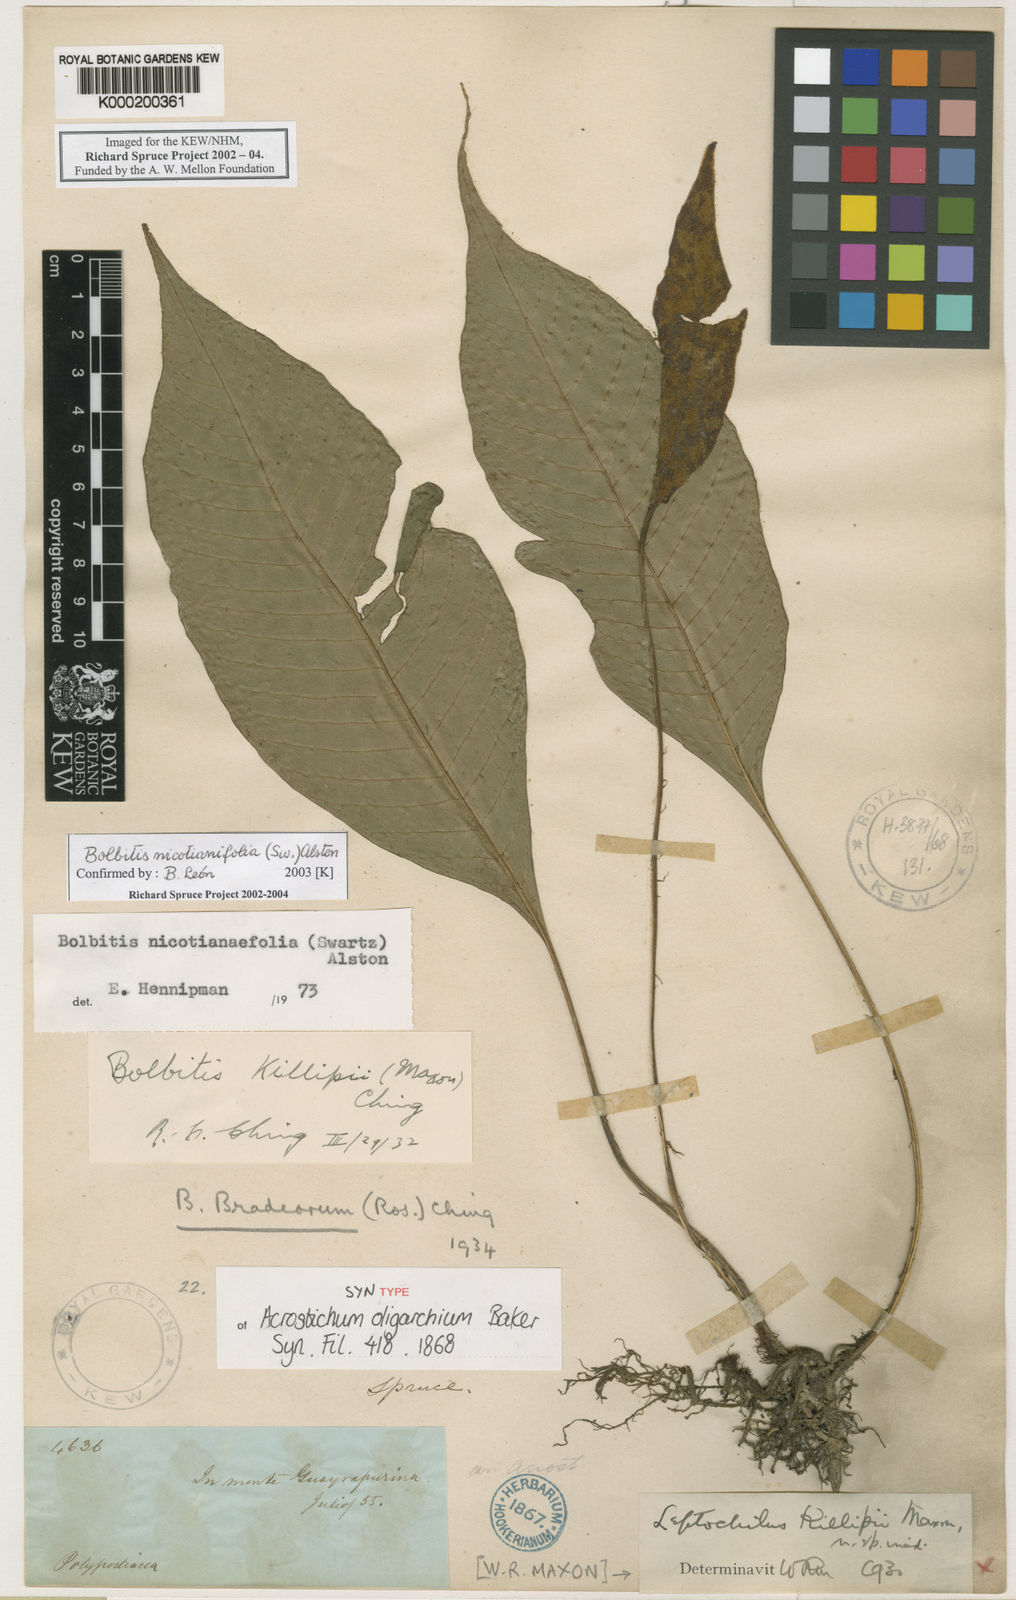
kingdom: Plantae
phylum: Tracheophyta
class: Polypodiopsida
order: Polypodiales
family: Dryopteridaceae
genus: Mickelia
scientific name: Mickelia nicotianifolia
